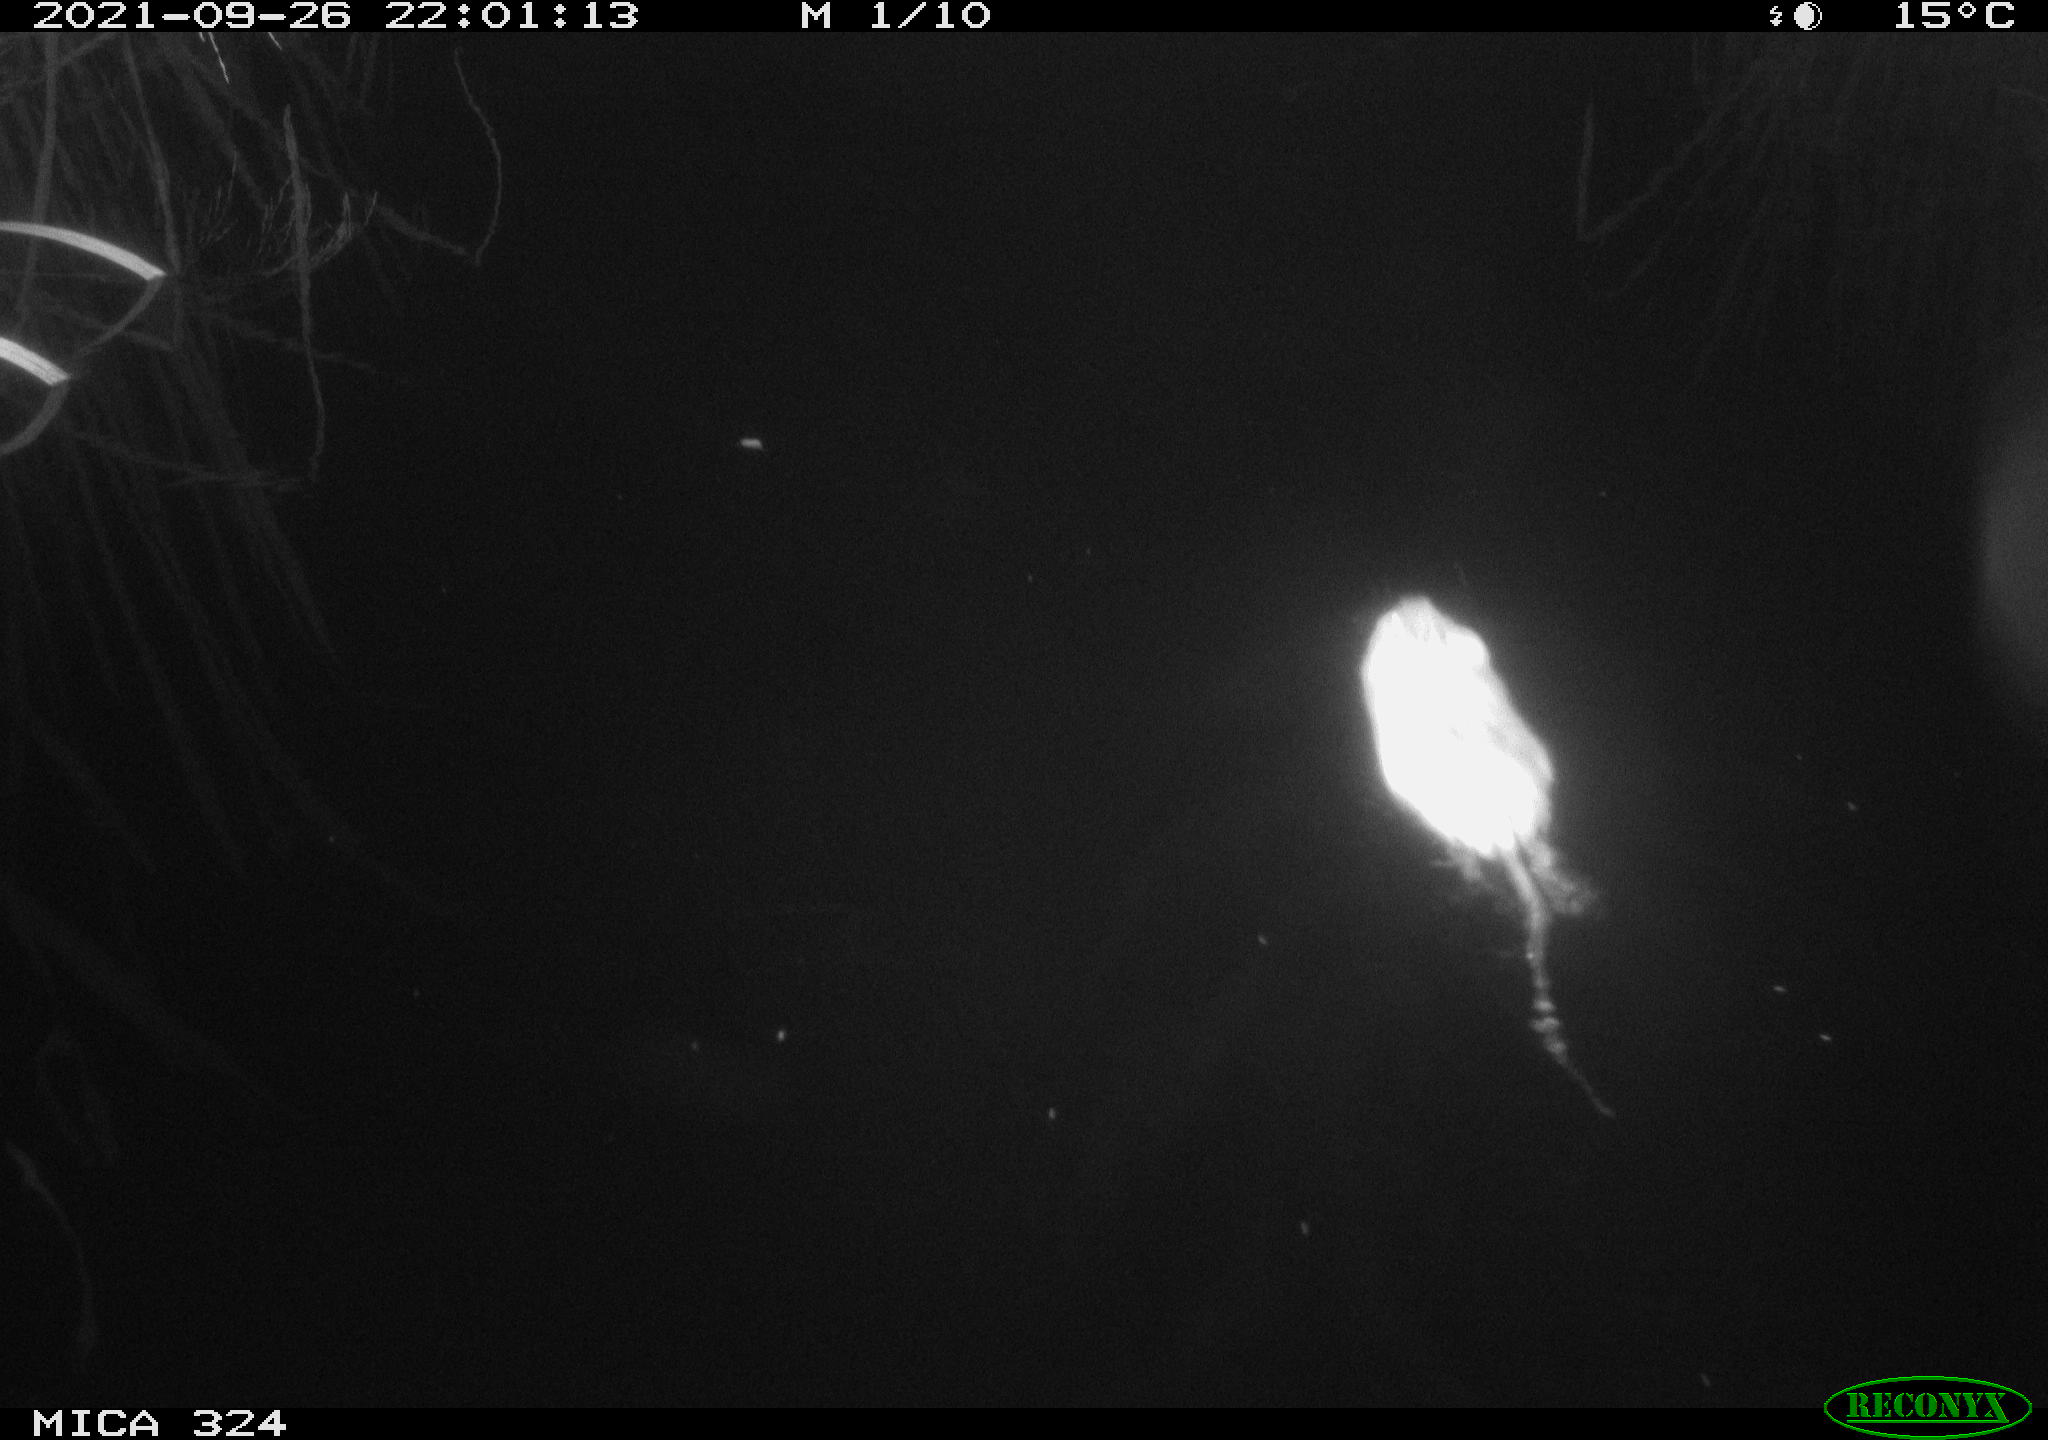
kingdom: Animalia
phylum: Chordata
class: Mammalia
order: Rodentia
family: Cricetidae
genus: Ondatra
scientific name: Ondatra zibethicus
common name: Muskrat
